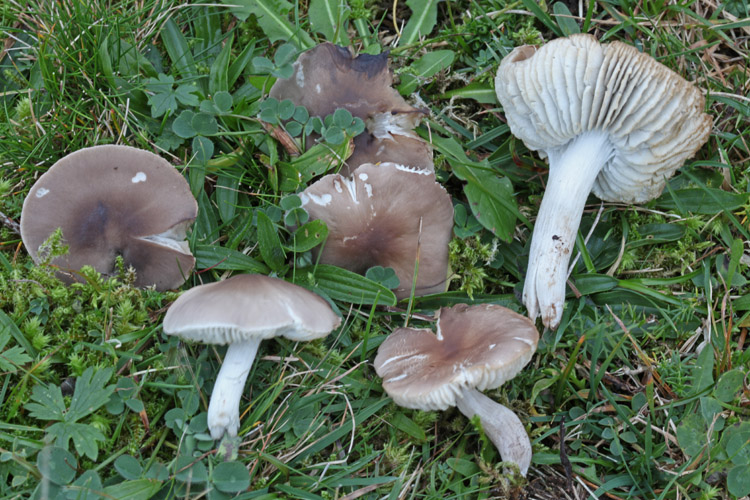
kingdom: Fungi
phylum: Basidiomycota
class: Agaricomycetes
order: Agaricales
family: Tricholomataceae
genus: Dermoloma
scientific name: Dermoloma cuneifolium
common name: eng-nonnehat
